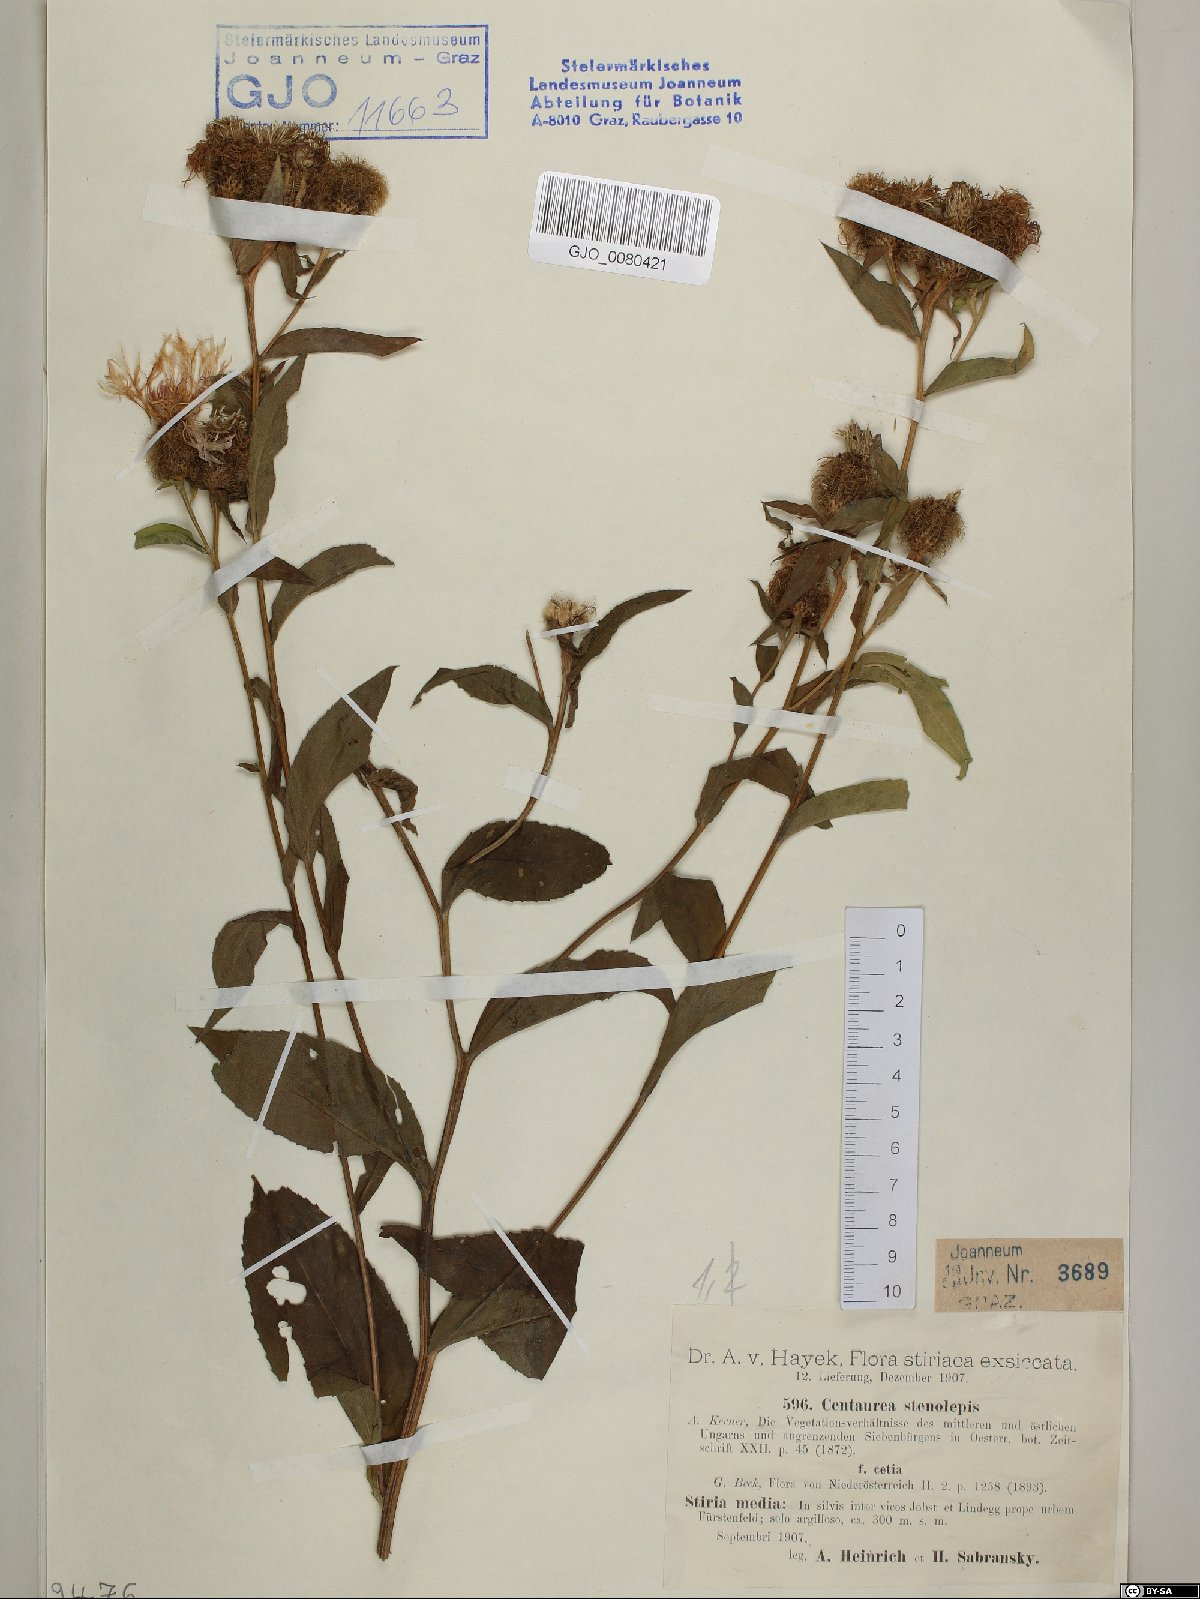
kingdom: Plantae
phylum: Tracheophyta
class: Magnoliopsida
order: Asterales
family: Asteraceae
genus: Centaurea
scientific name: Centaurea stenolepis
